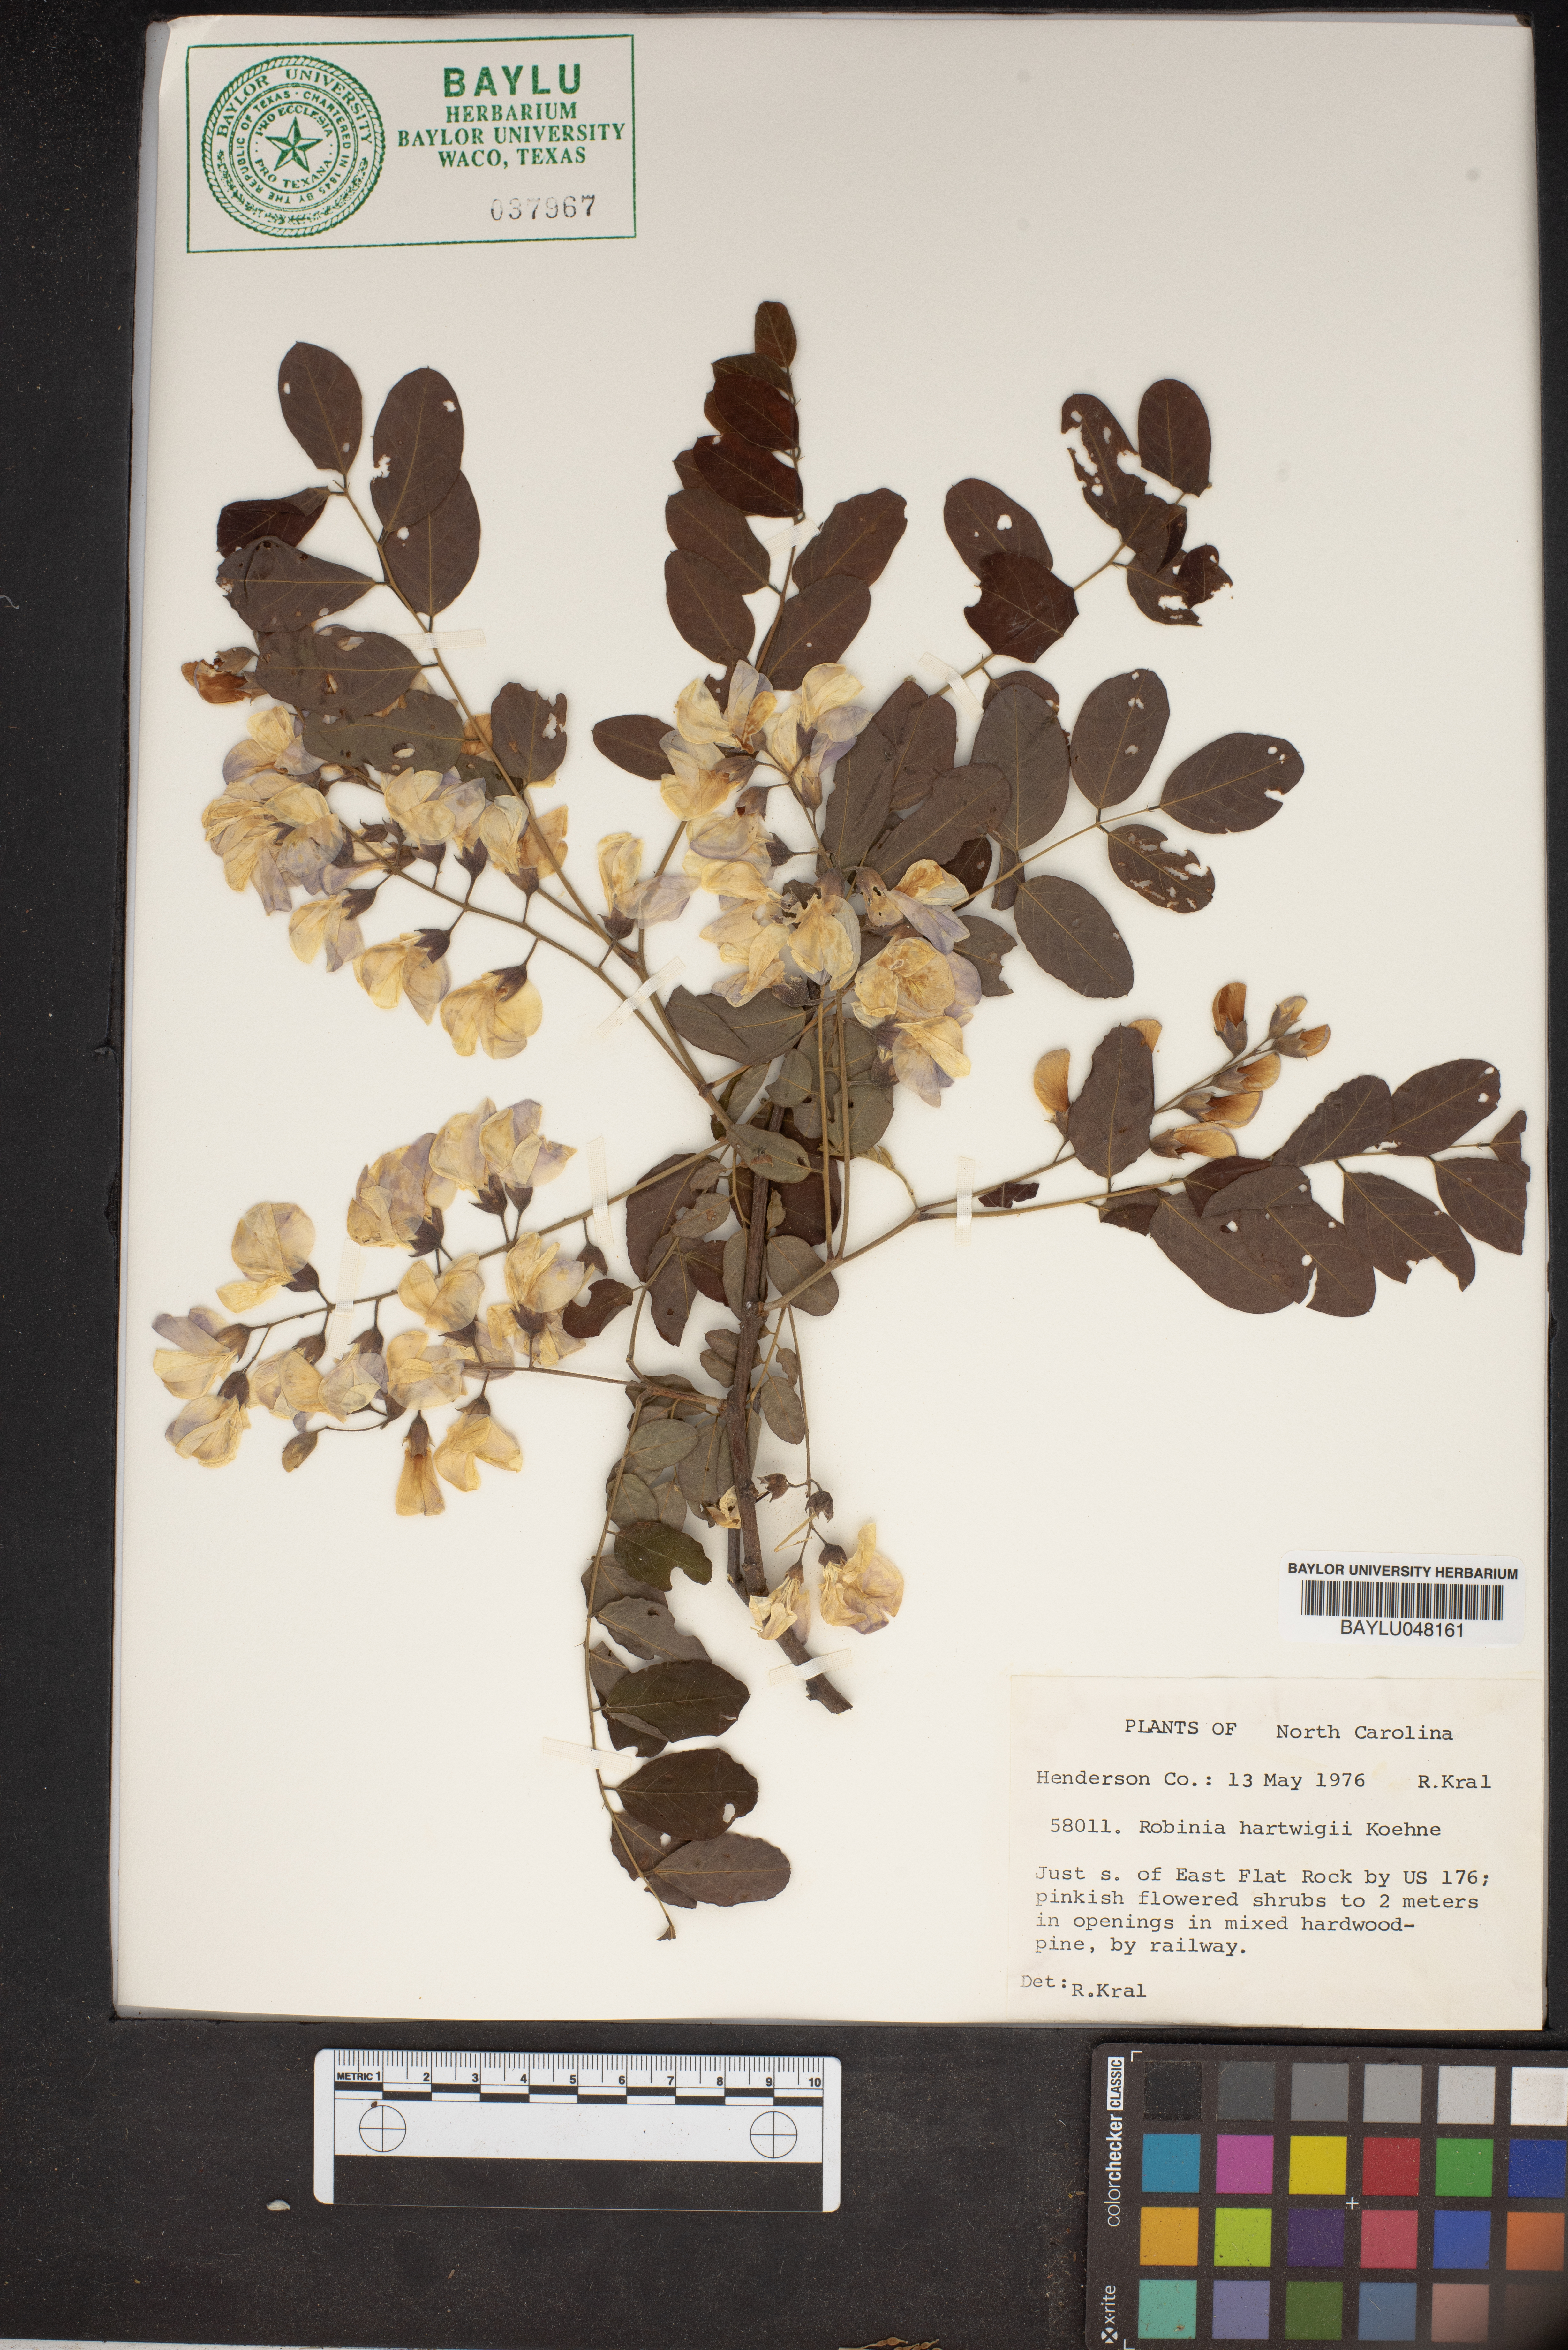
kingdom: Plantae
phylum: Tracheophyta
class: Magnoliopsida
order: Fabales
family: Fabaceae
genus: Robinia
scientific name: Robinia hartwigii
